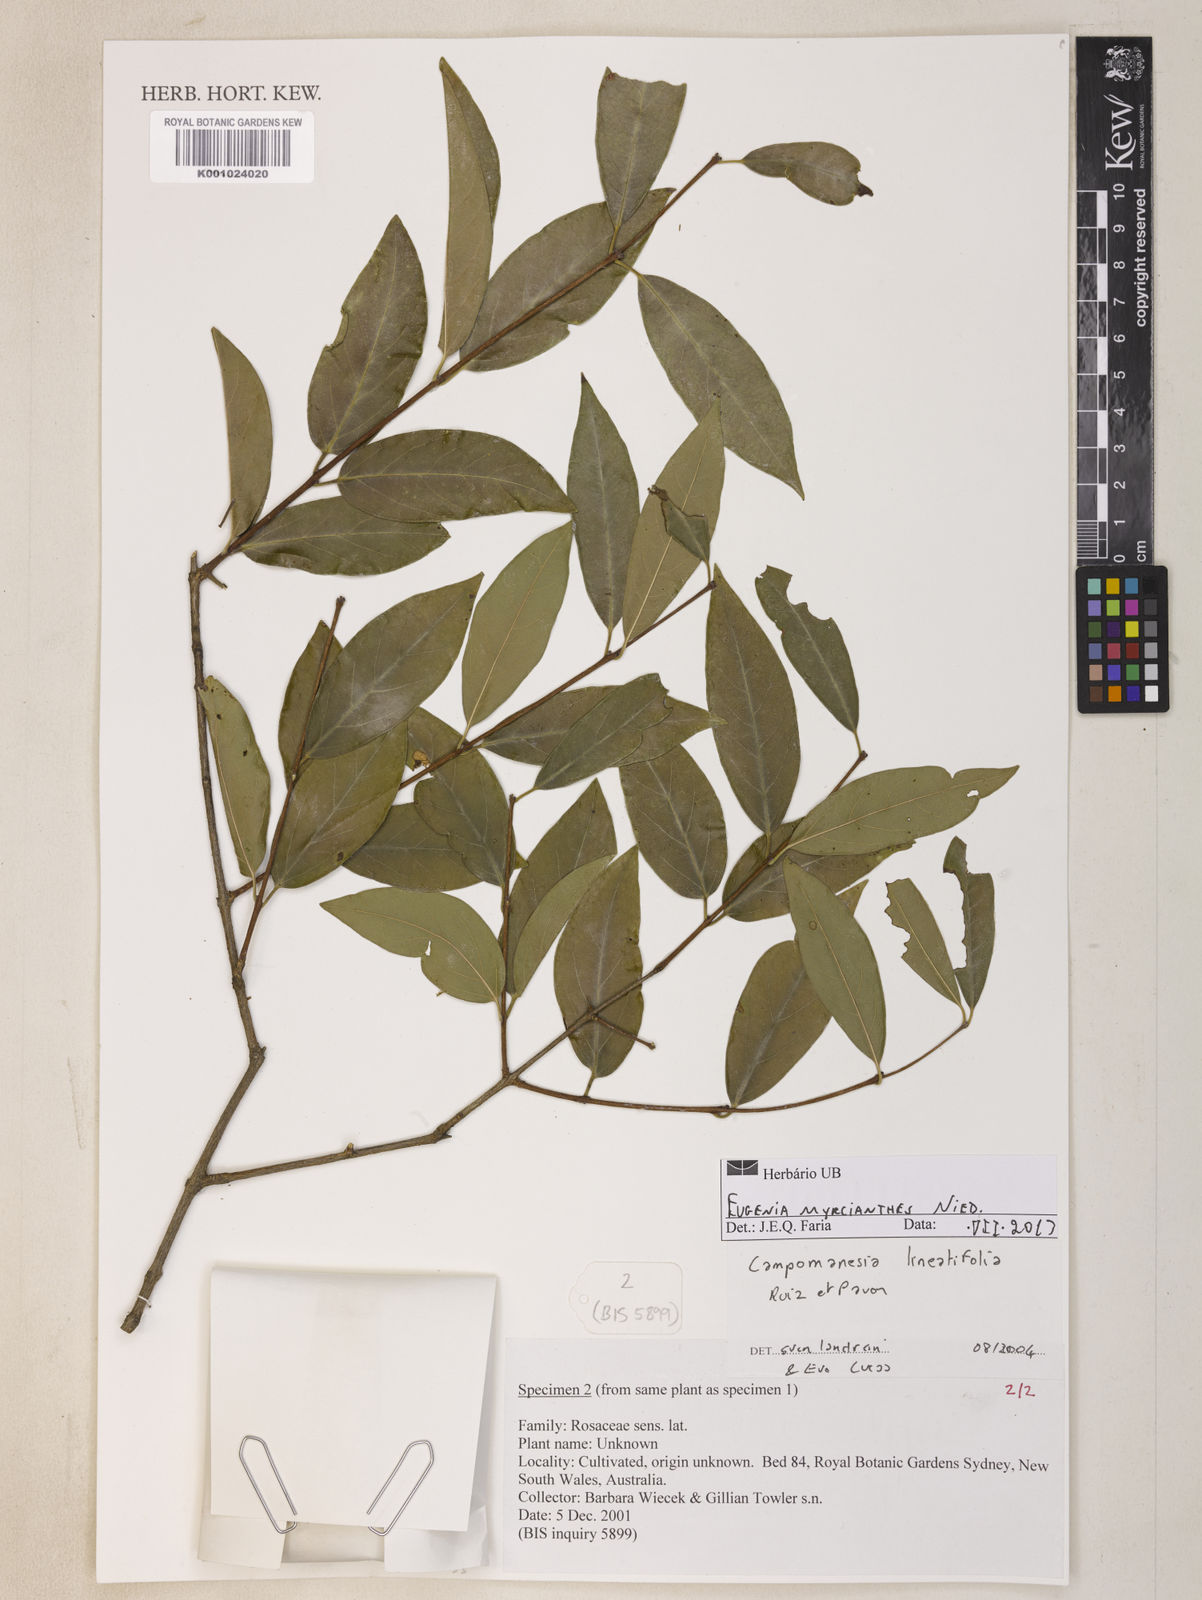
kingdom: Plantae
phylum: Tracheophyta
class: Magnoliopsida
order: Myrtales
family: Myrtaceae
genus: Eugenia
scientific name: Eugenia myrcianthes
